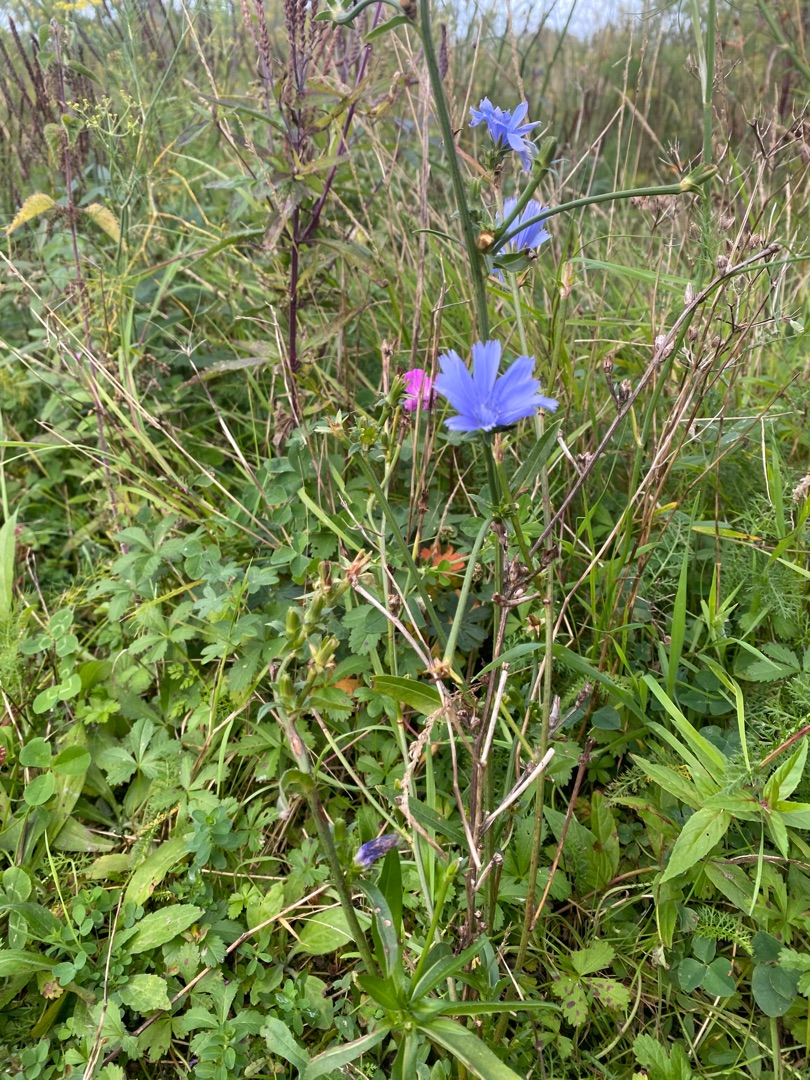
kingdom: Plantae
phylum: Tracheophyta
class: Magnoliopsida
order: Asterales
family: Asteraceae
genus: Cichorium
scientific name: Cichorium intybus
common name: Cikorie
